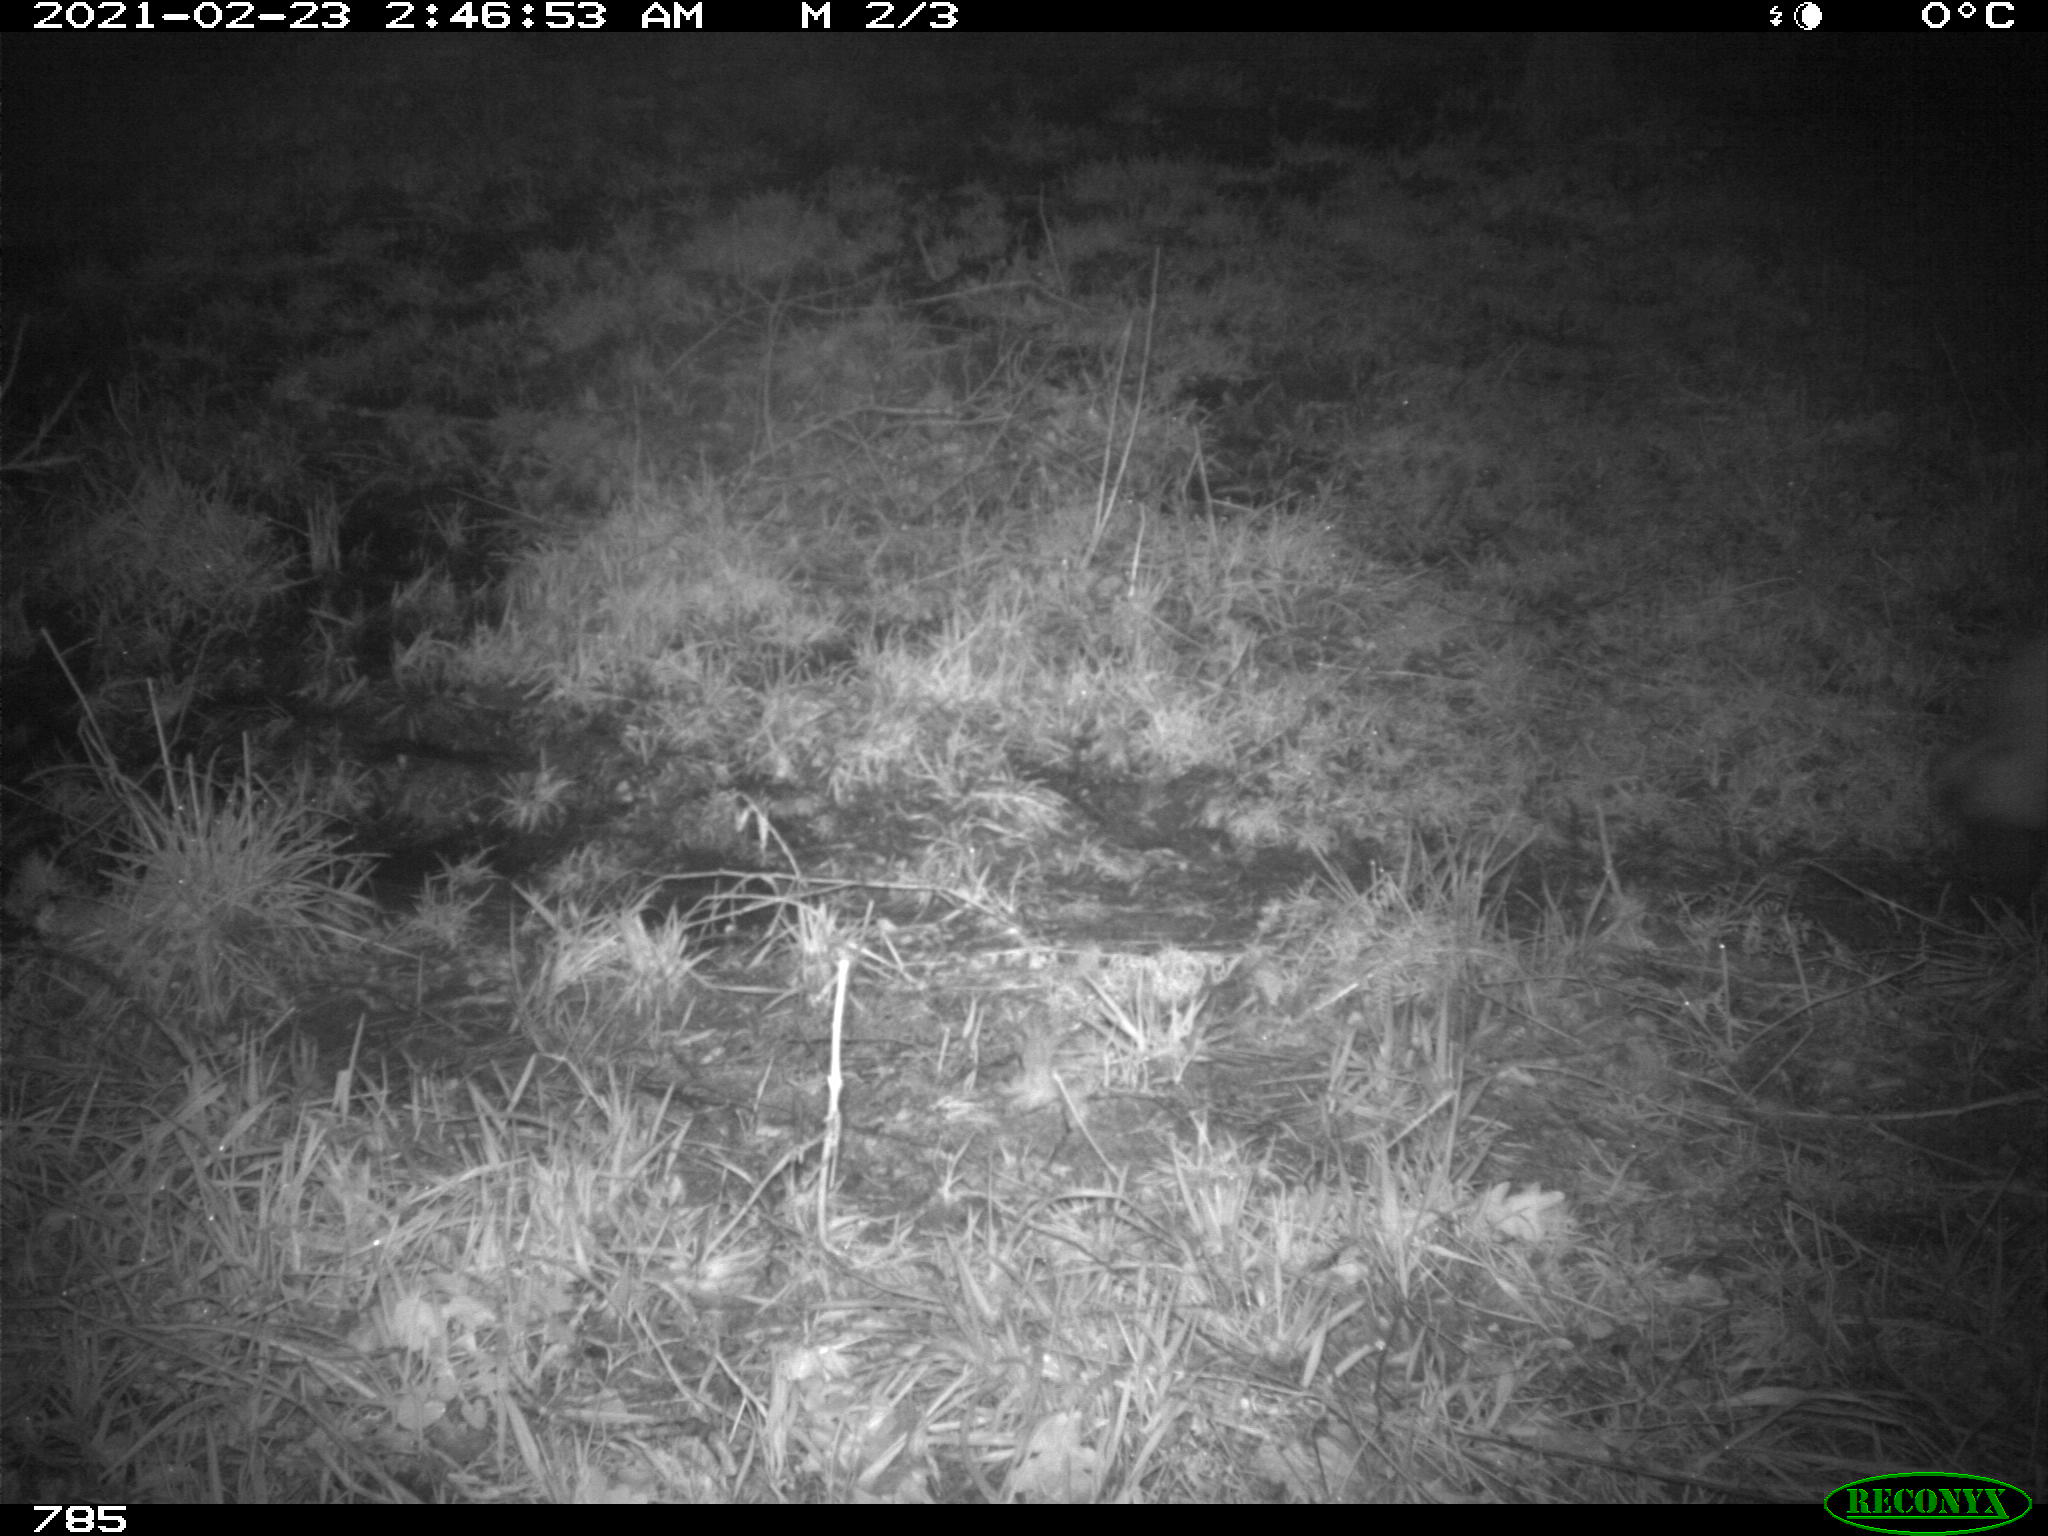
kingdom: Animalia
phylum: Chordata
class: Mammalia
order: Artiodactyla
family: Bovidae
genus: Bos
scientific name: Bos taurus
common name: Domesticated cattle
